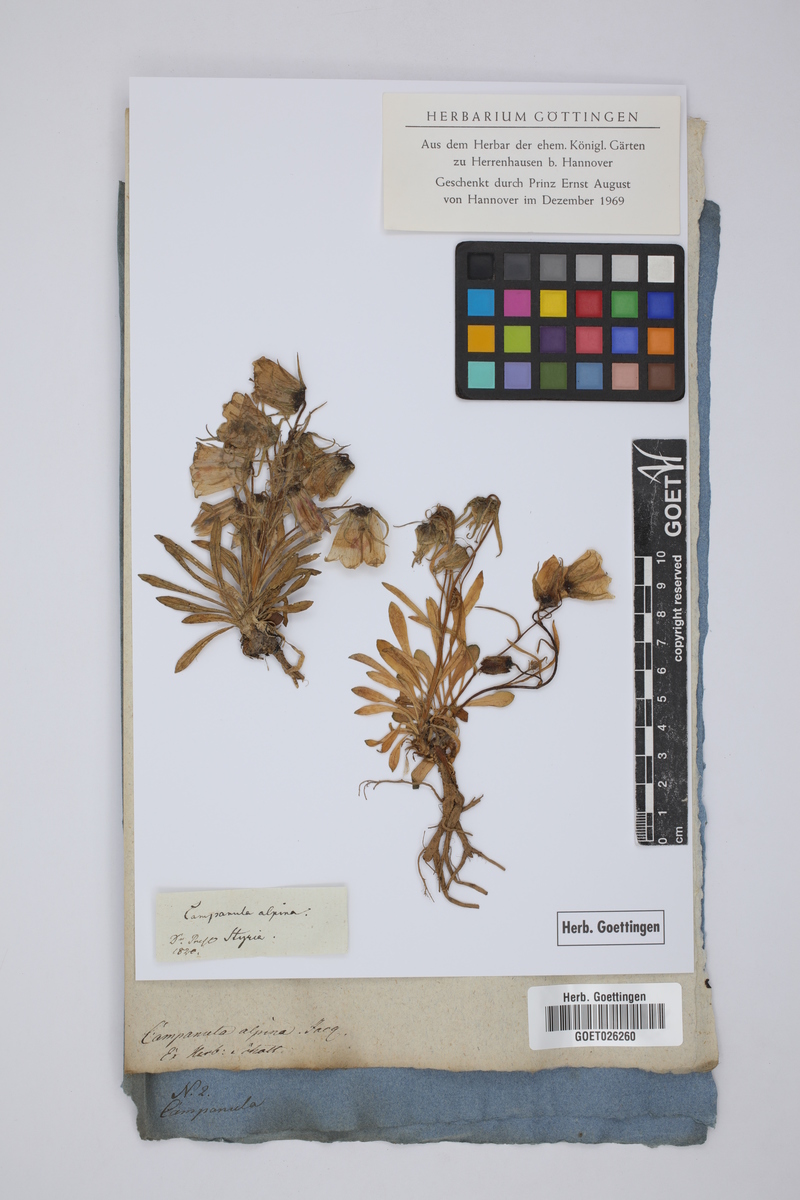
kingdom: Plantae
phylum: Tracheophyta
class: Magnoliopsida
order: Asterales
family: Campanulaceae
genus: Campanula
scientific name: Campanula alpina
